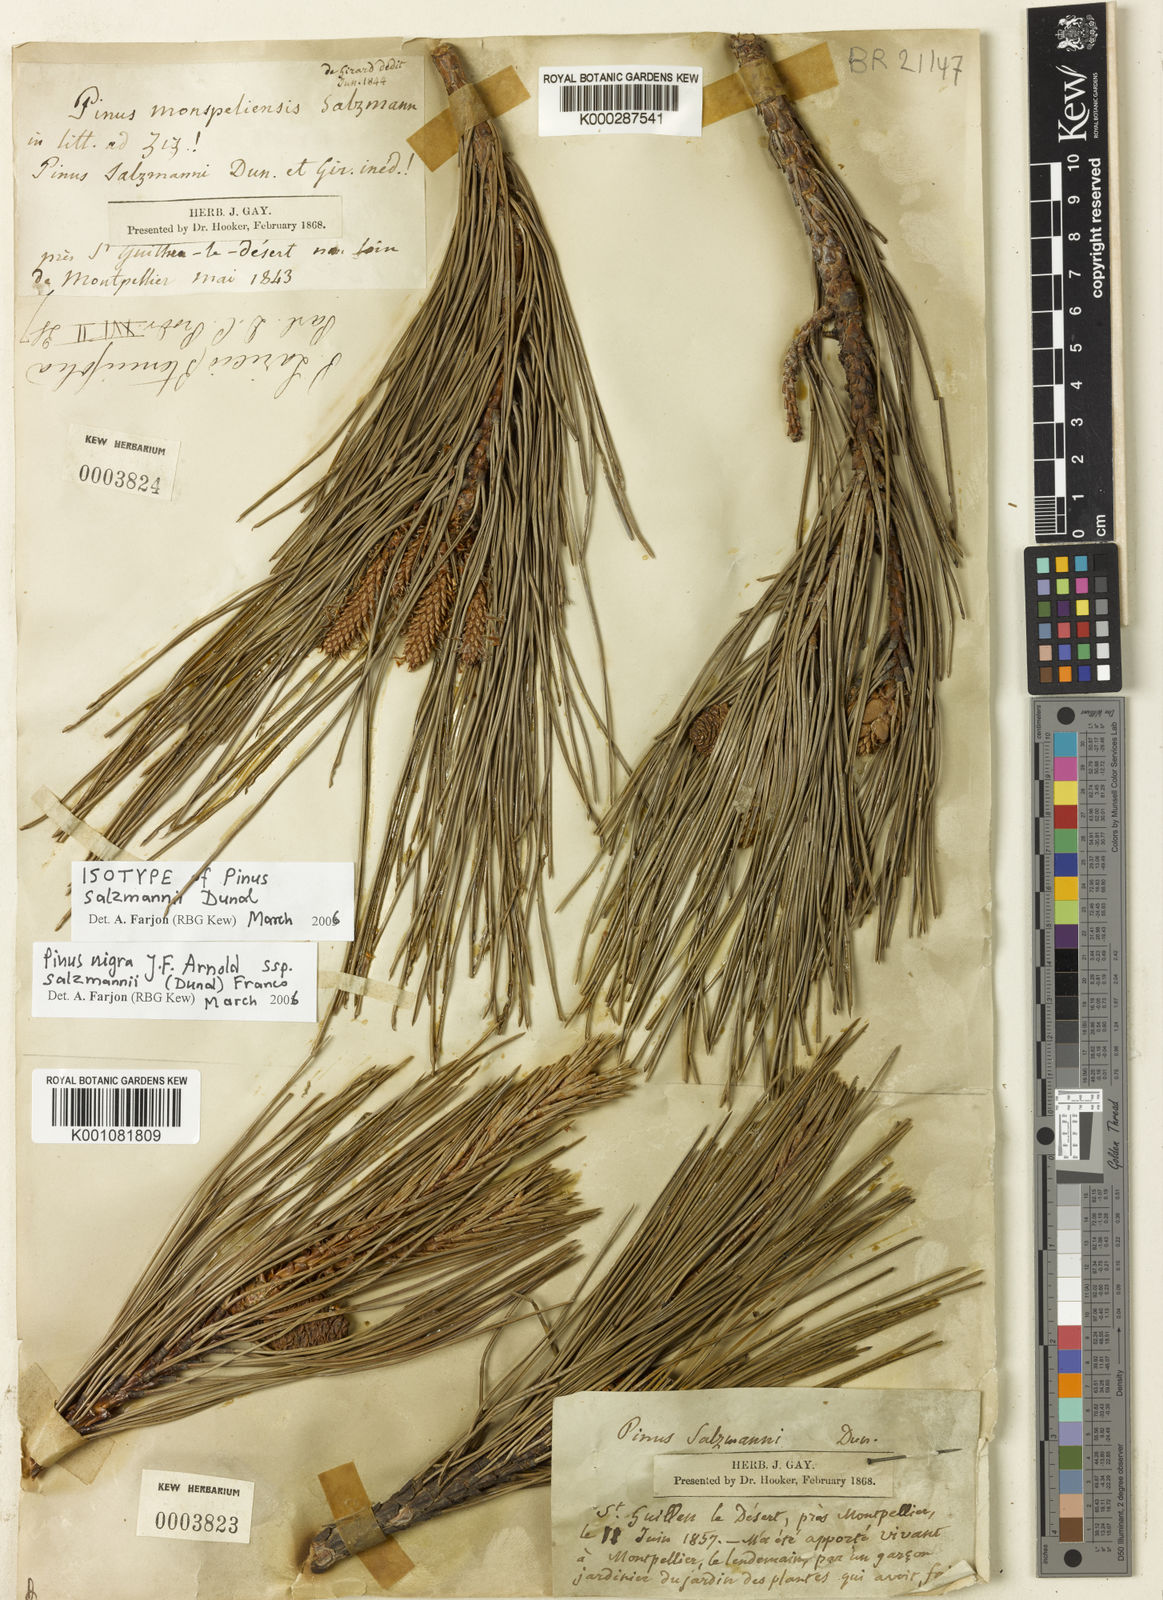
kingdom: Plantae
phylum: Tracheophyta
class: Pinopsida
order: Pinales
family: Pinaceae
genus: Pinus
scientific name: Pinus nigra
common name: Austrian pine
